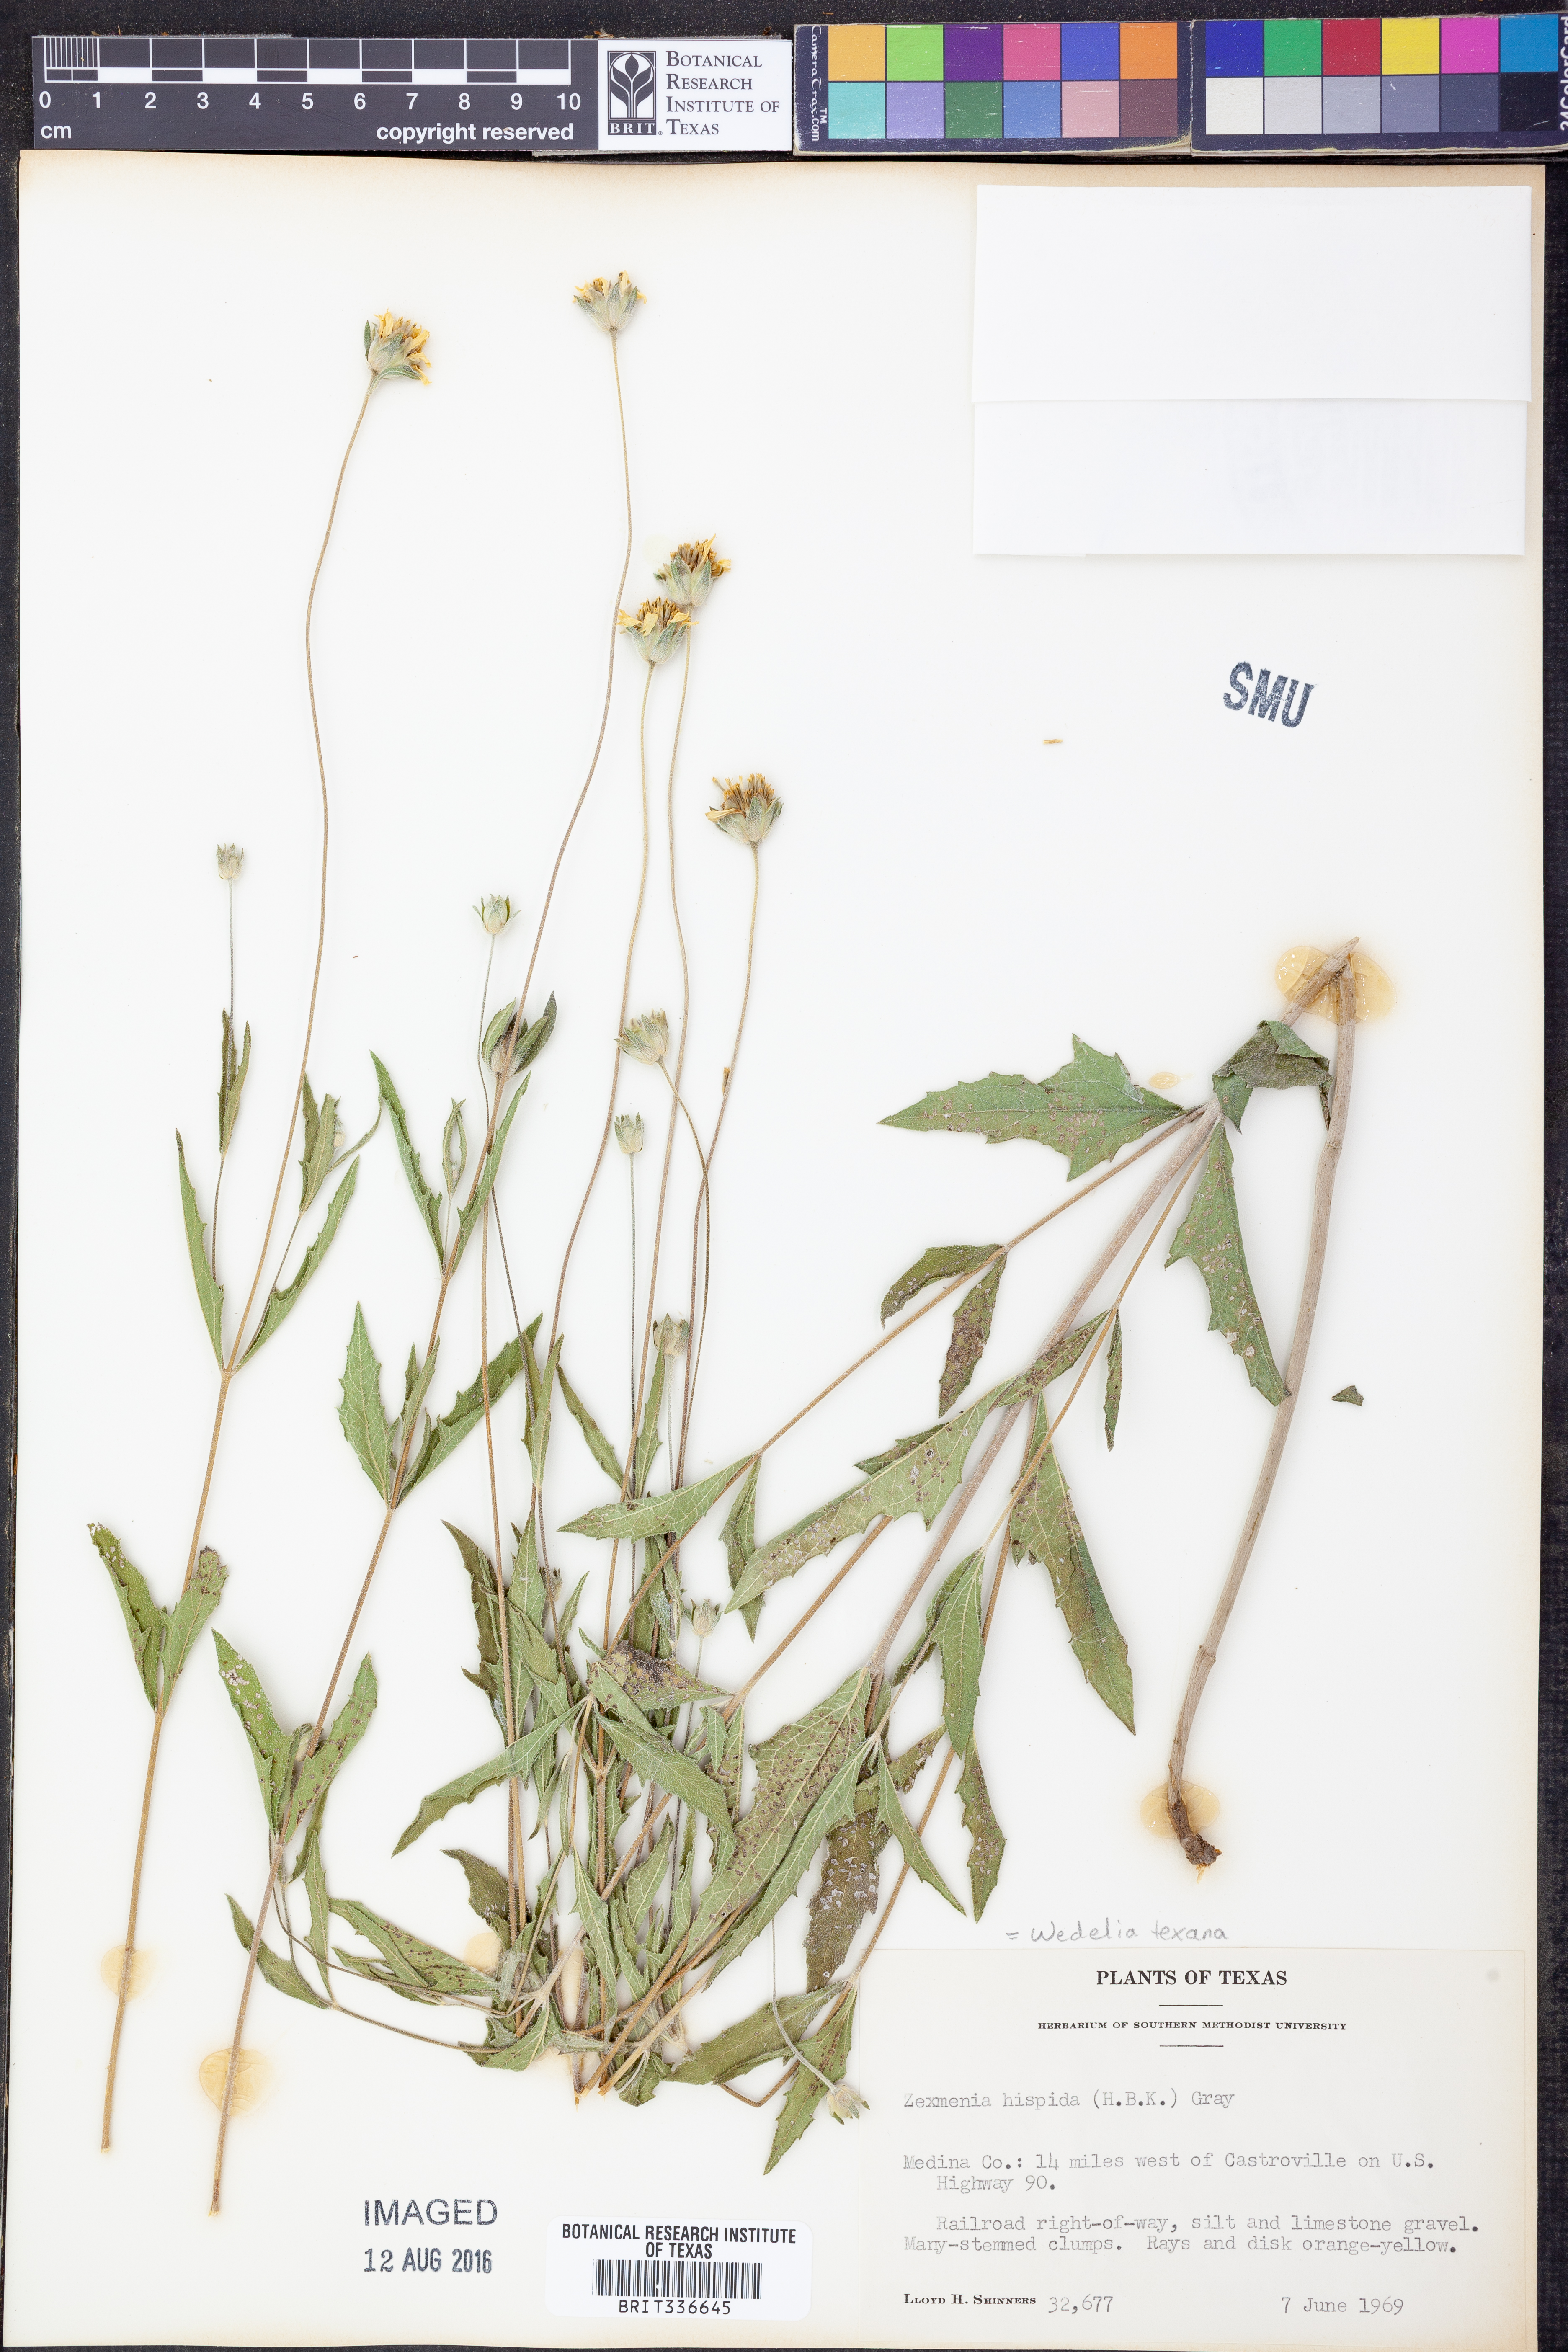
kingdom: Plantae
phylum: Tracheophyta
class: Magnoliopsida
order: Asterales
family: Asteraceae
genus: Wedelia
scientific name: Wedelia acapulcensis
